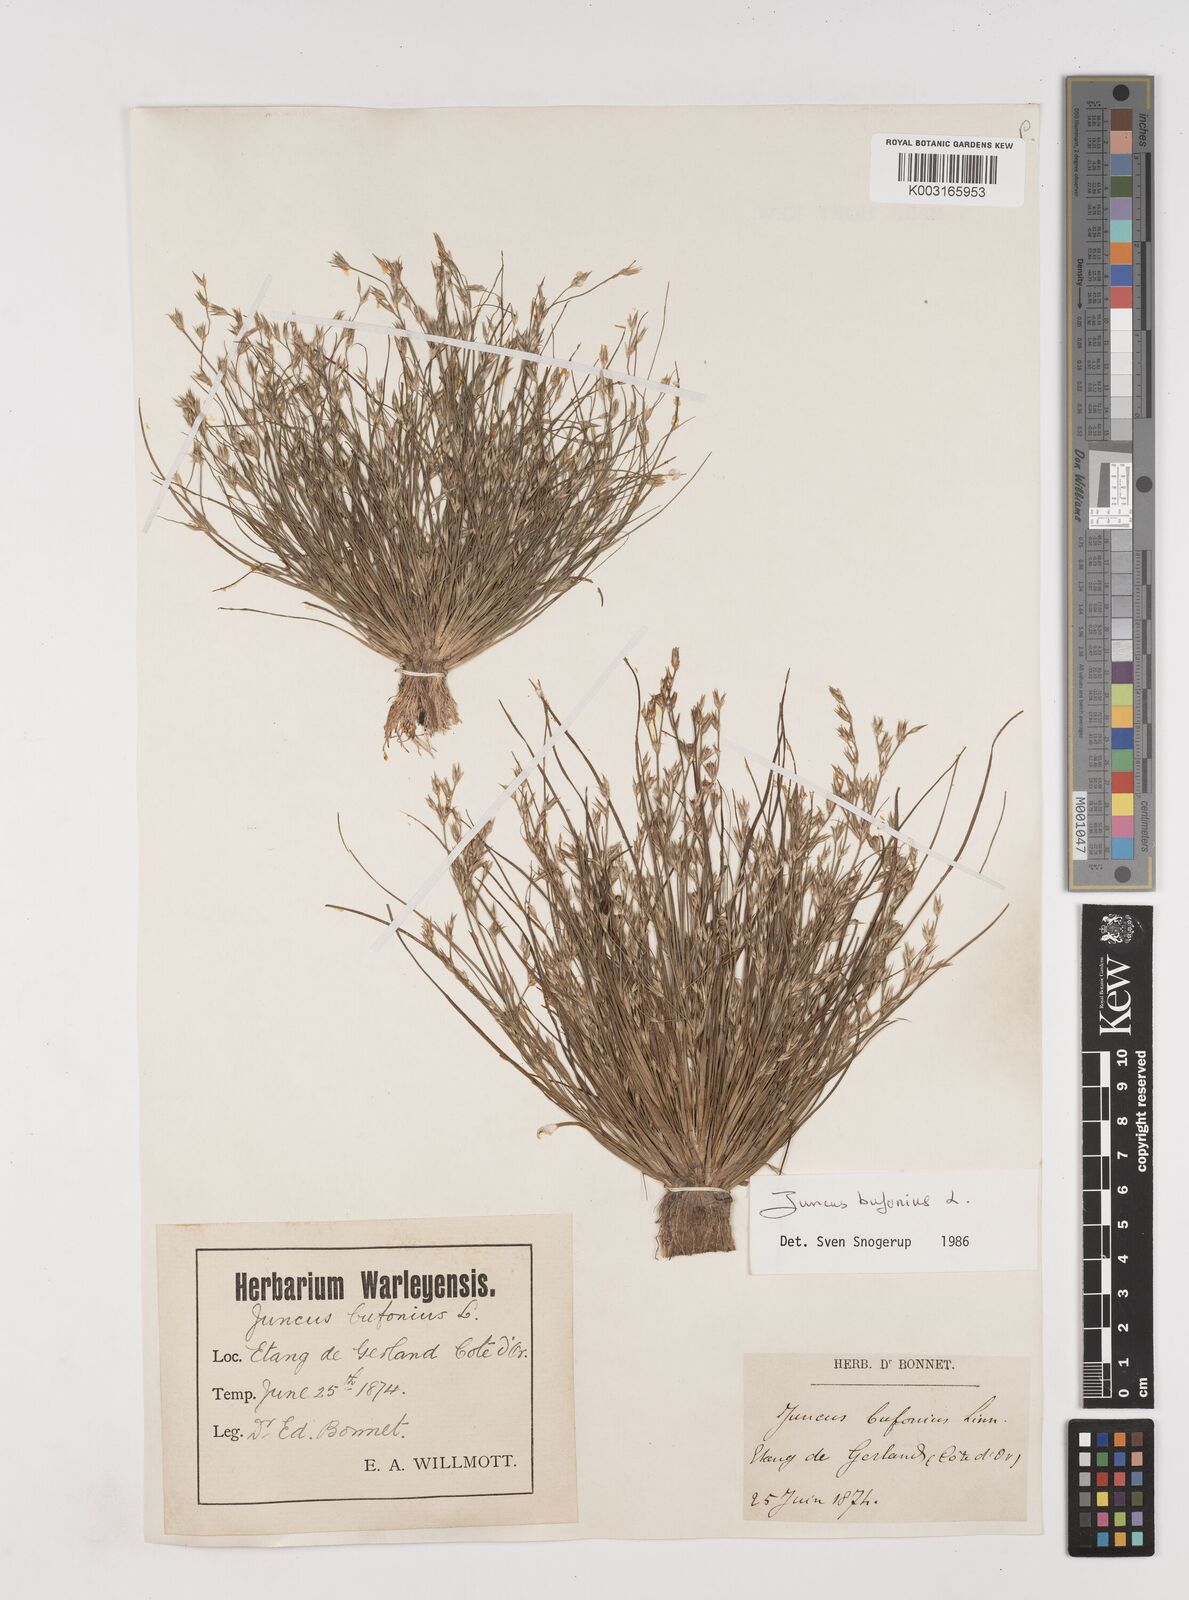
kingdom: Plantae
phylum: Tracheophyta
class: Liliopsida
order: Poales
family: Juncaceae
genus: Juncus
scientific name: Juncus bufonius
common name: Toad rush
